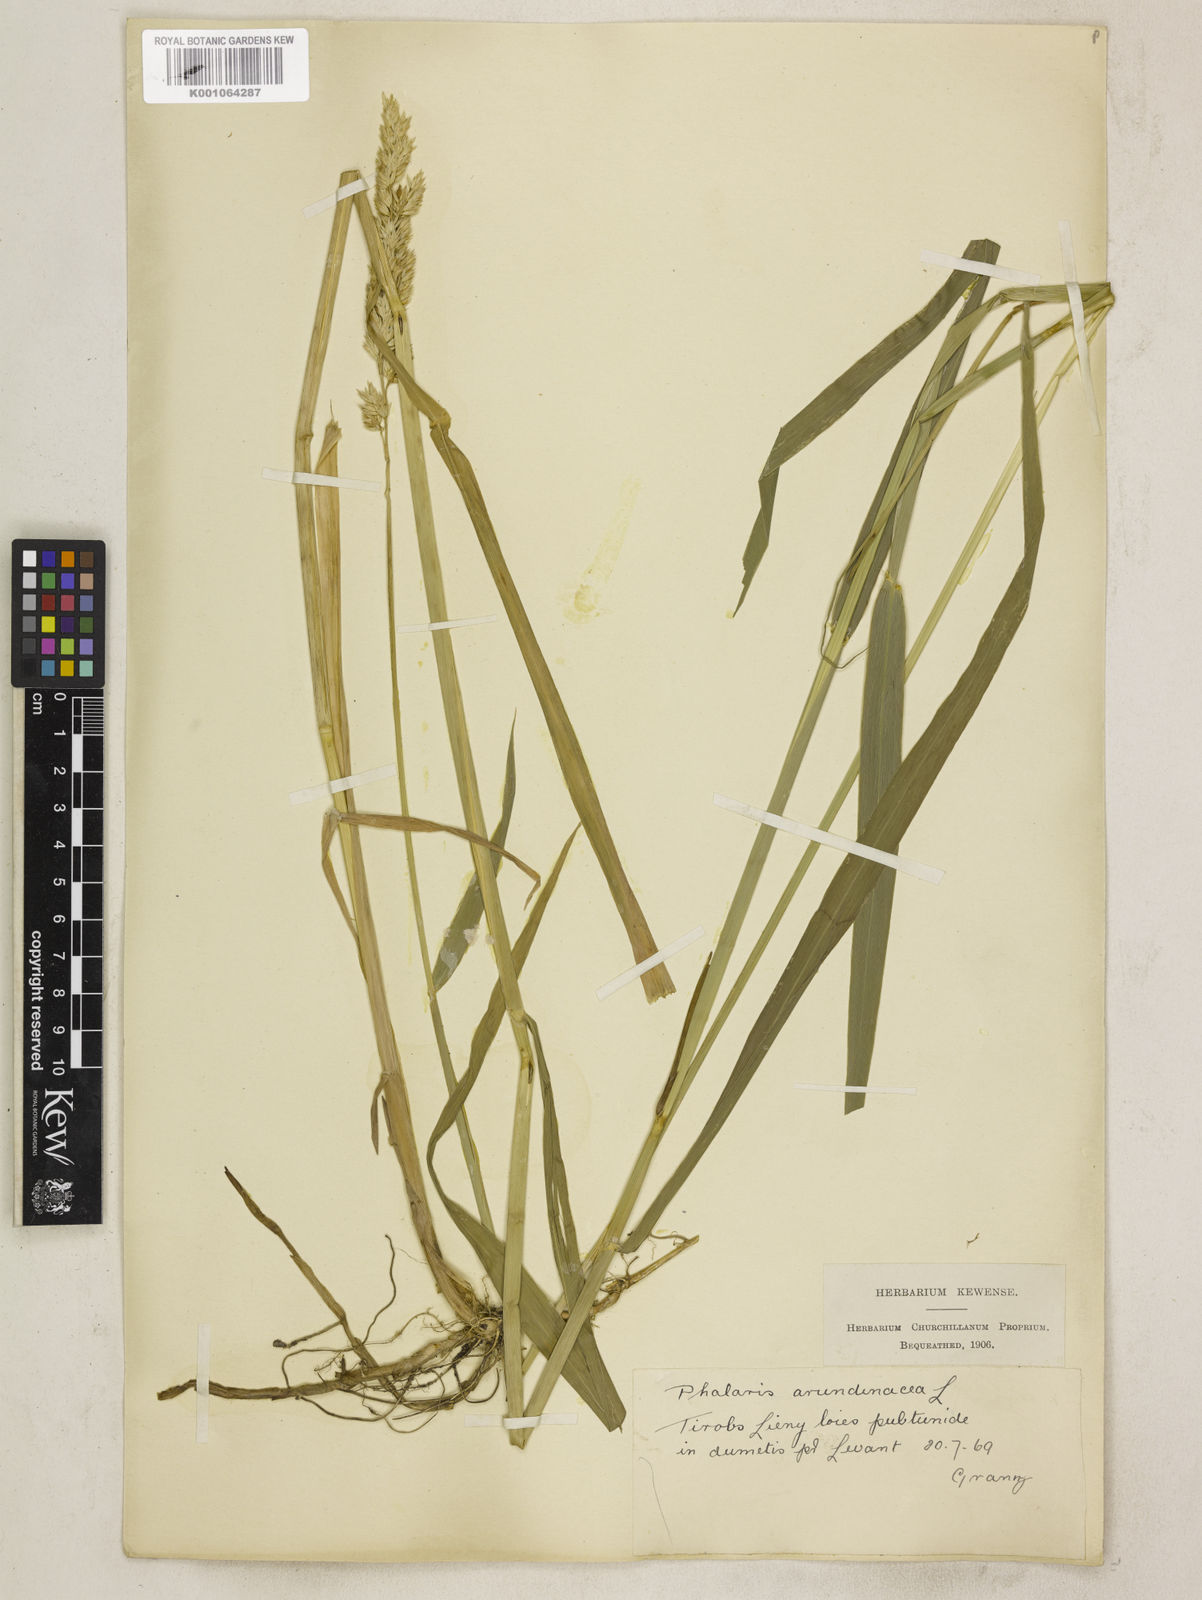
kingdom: Plantae
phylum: Tracheophyta
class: Liliopsida
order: Poales
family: Poaceae
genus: Phalaris
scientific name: Phalaris arundinacea
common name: Reed canary-grass
